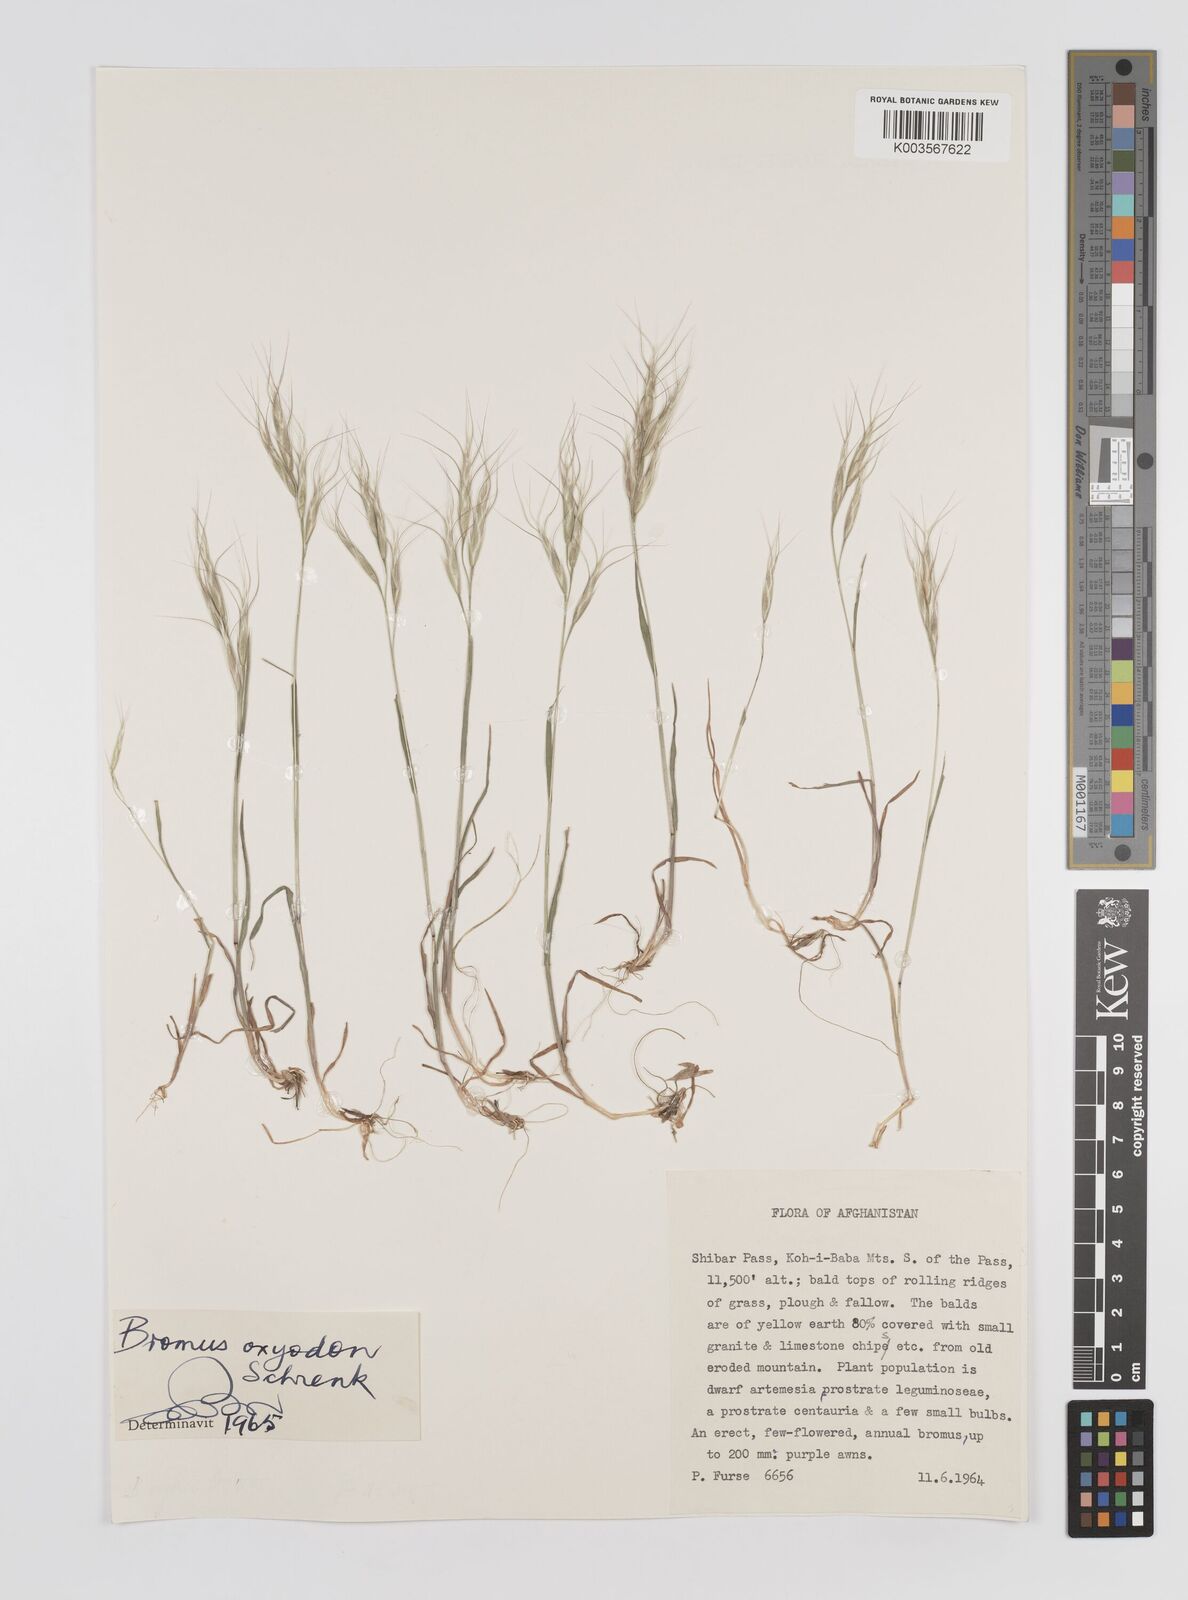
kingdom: Plantae
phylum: Tracheophyta
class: Liliopsida
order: Poales
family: Poaceae
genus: Bromus
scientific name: Bromus oxyodon
